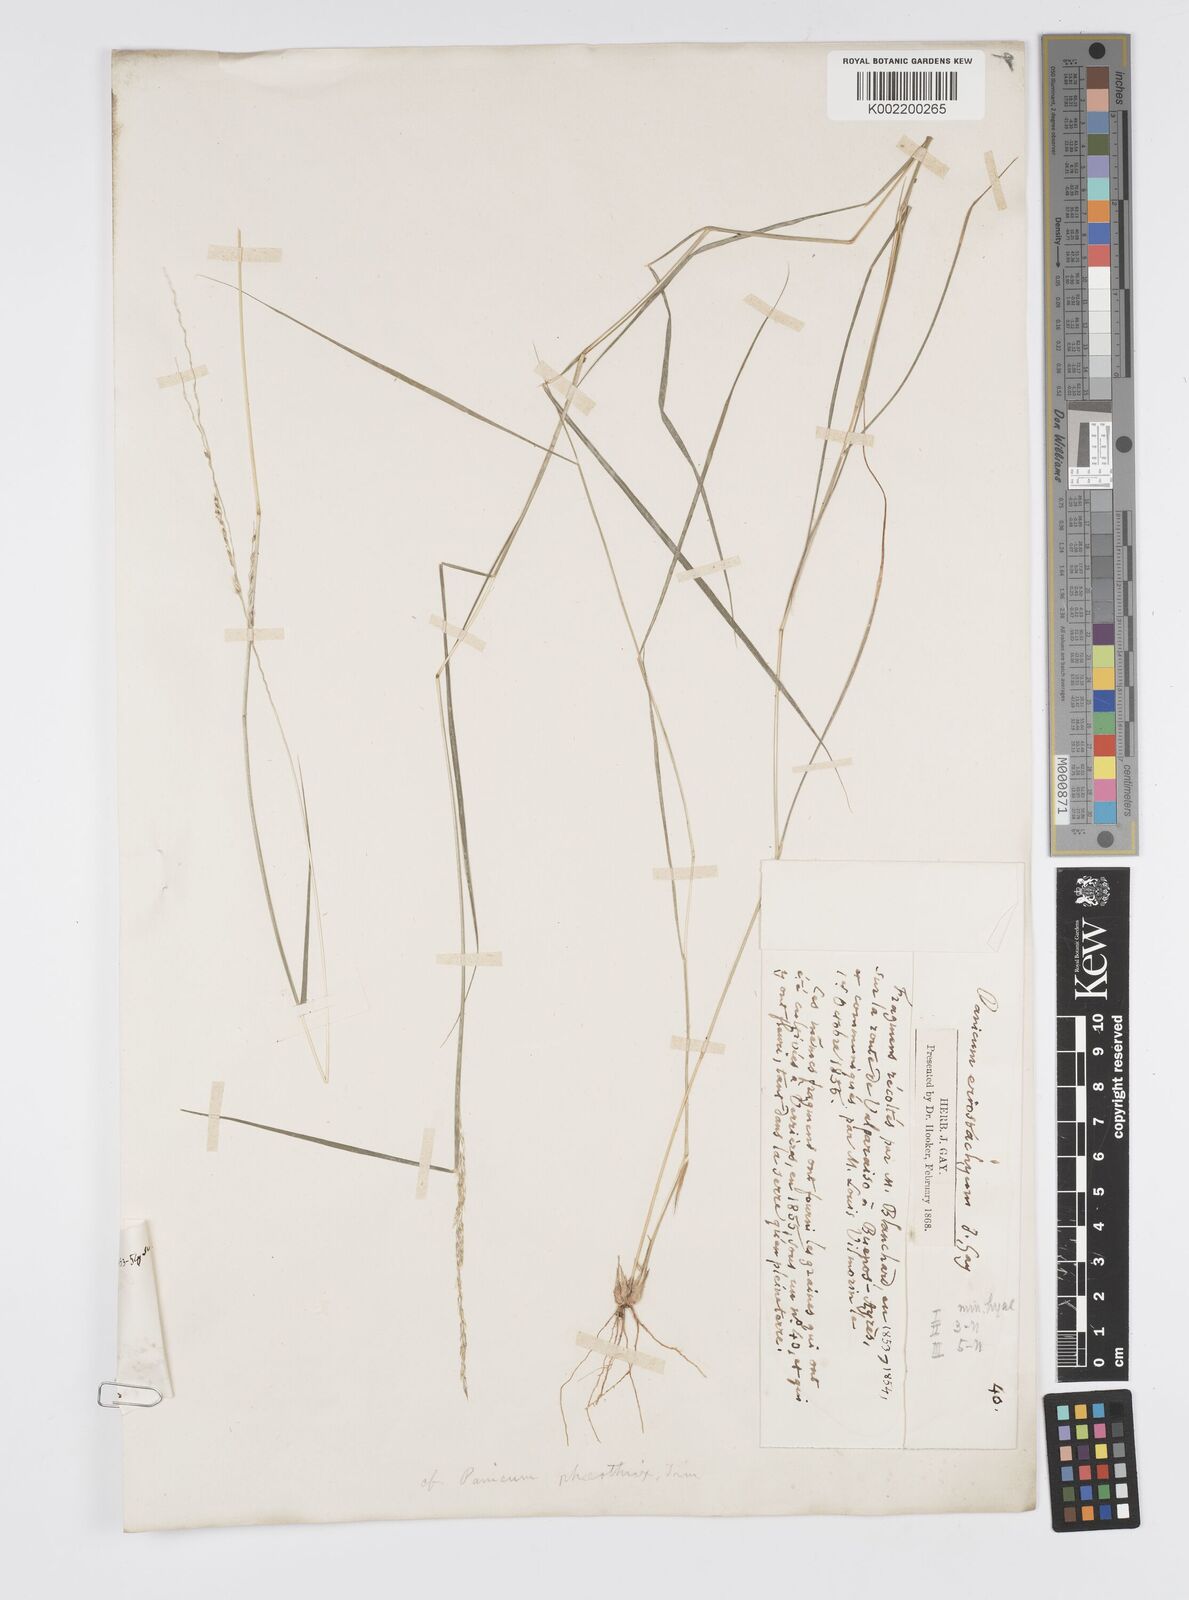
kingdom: Plantae
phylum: Tracheophyta
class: Liliopsida
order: Poales
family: Poaceae
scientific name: Poaceae
